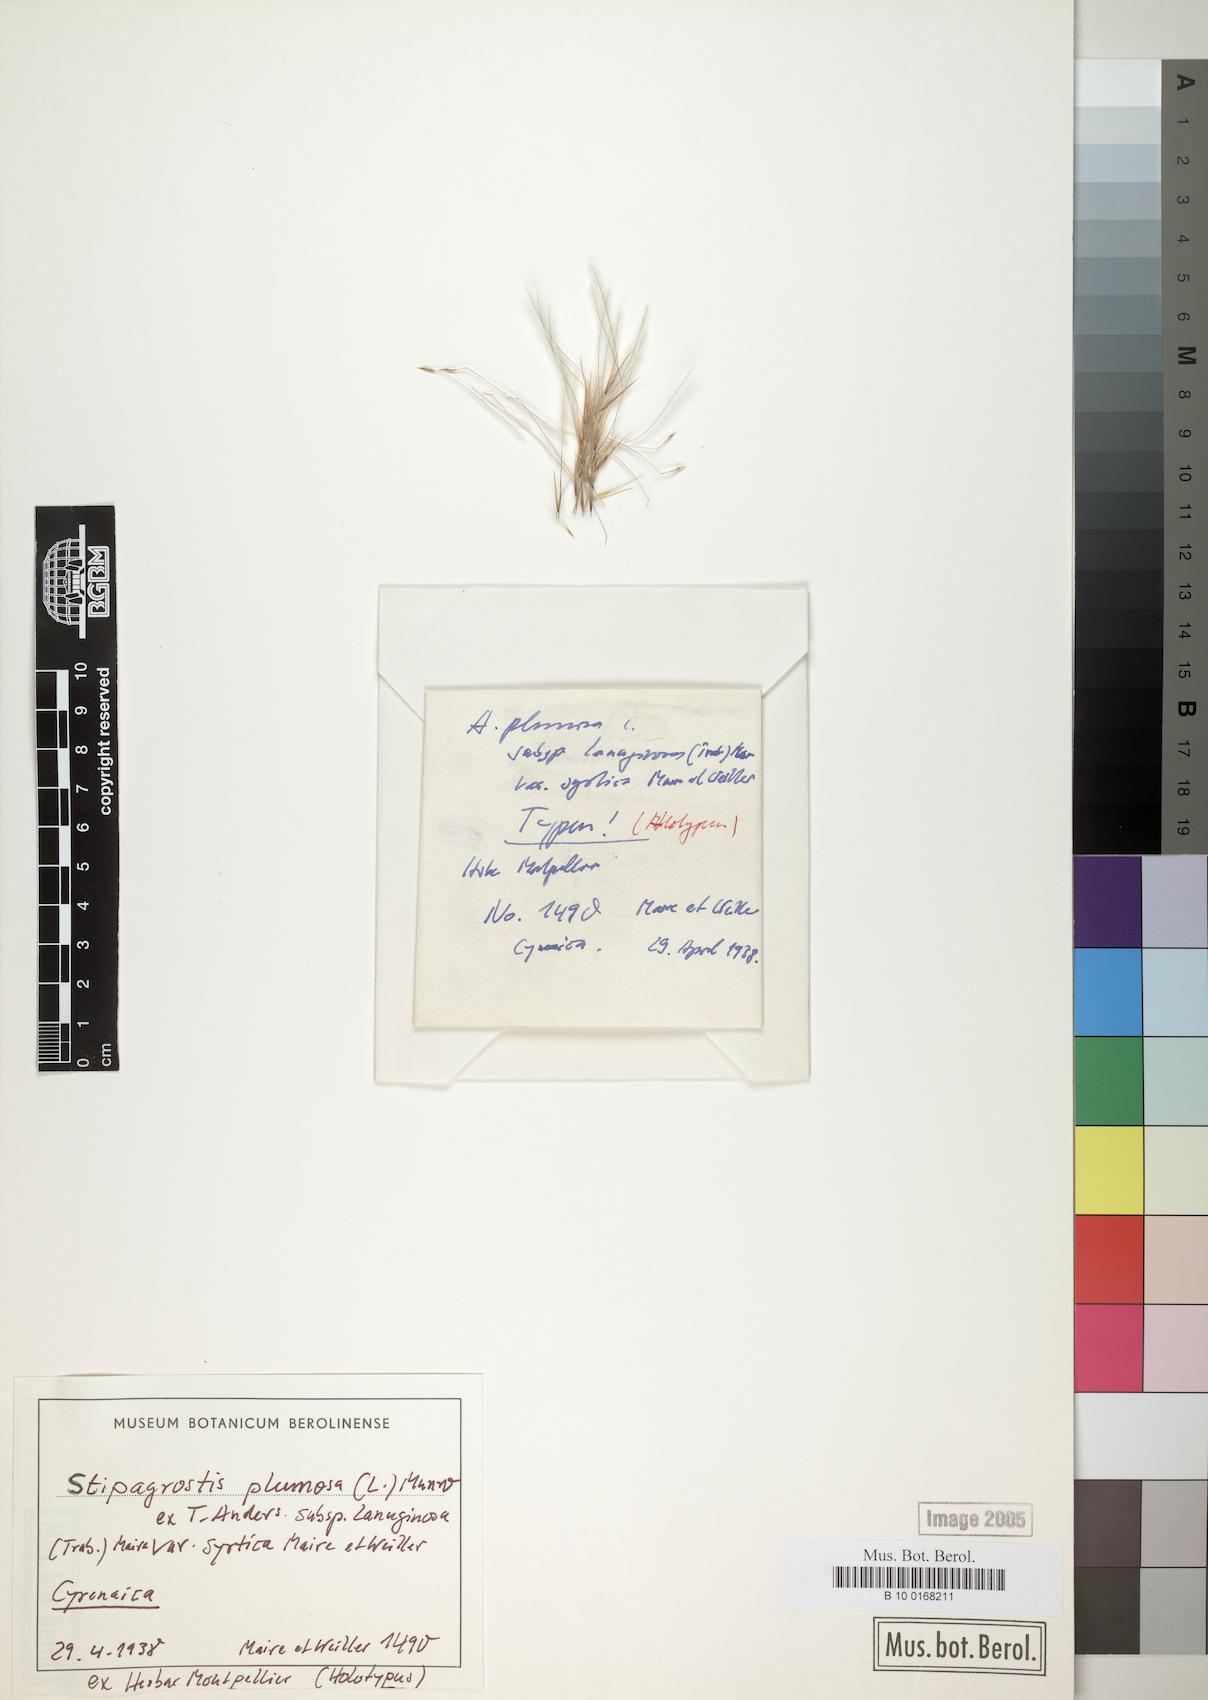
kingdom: Plantae
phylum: Tracheophyta
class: Liliopsida
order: Poales
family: Poaceae
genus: Stipagrostis
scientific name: Stipagrostis plumosa
